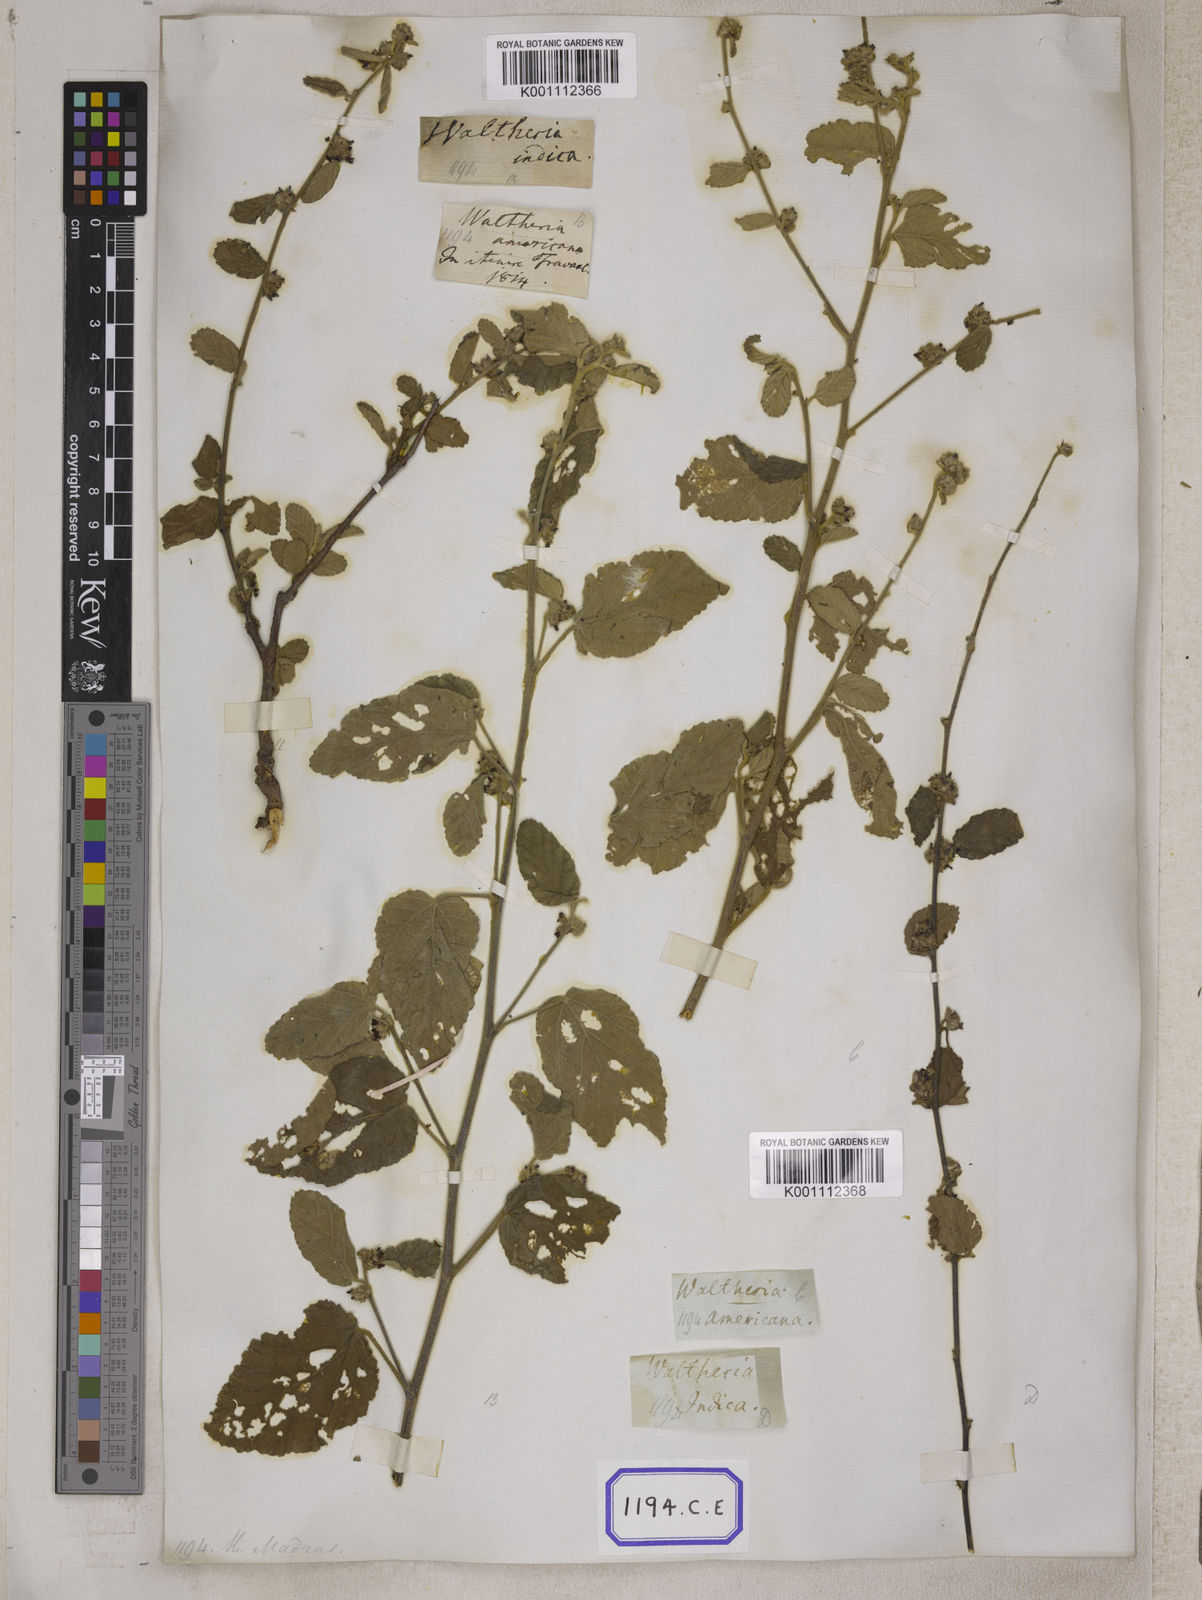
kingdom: Plantae
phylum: Tracheophyta
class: Magnoliopsida
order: Malvales
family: Malvaceae
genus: Waltheria
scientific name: Waltheria indica
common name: Leather-coat
